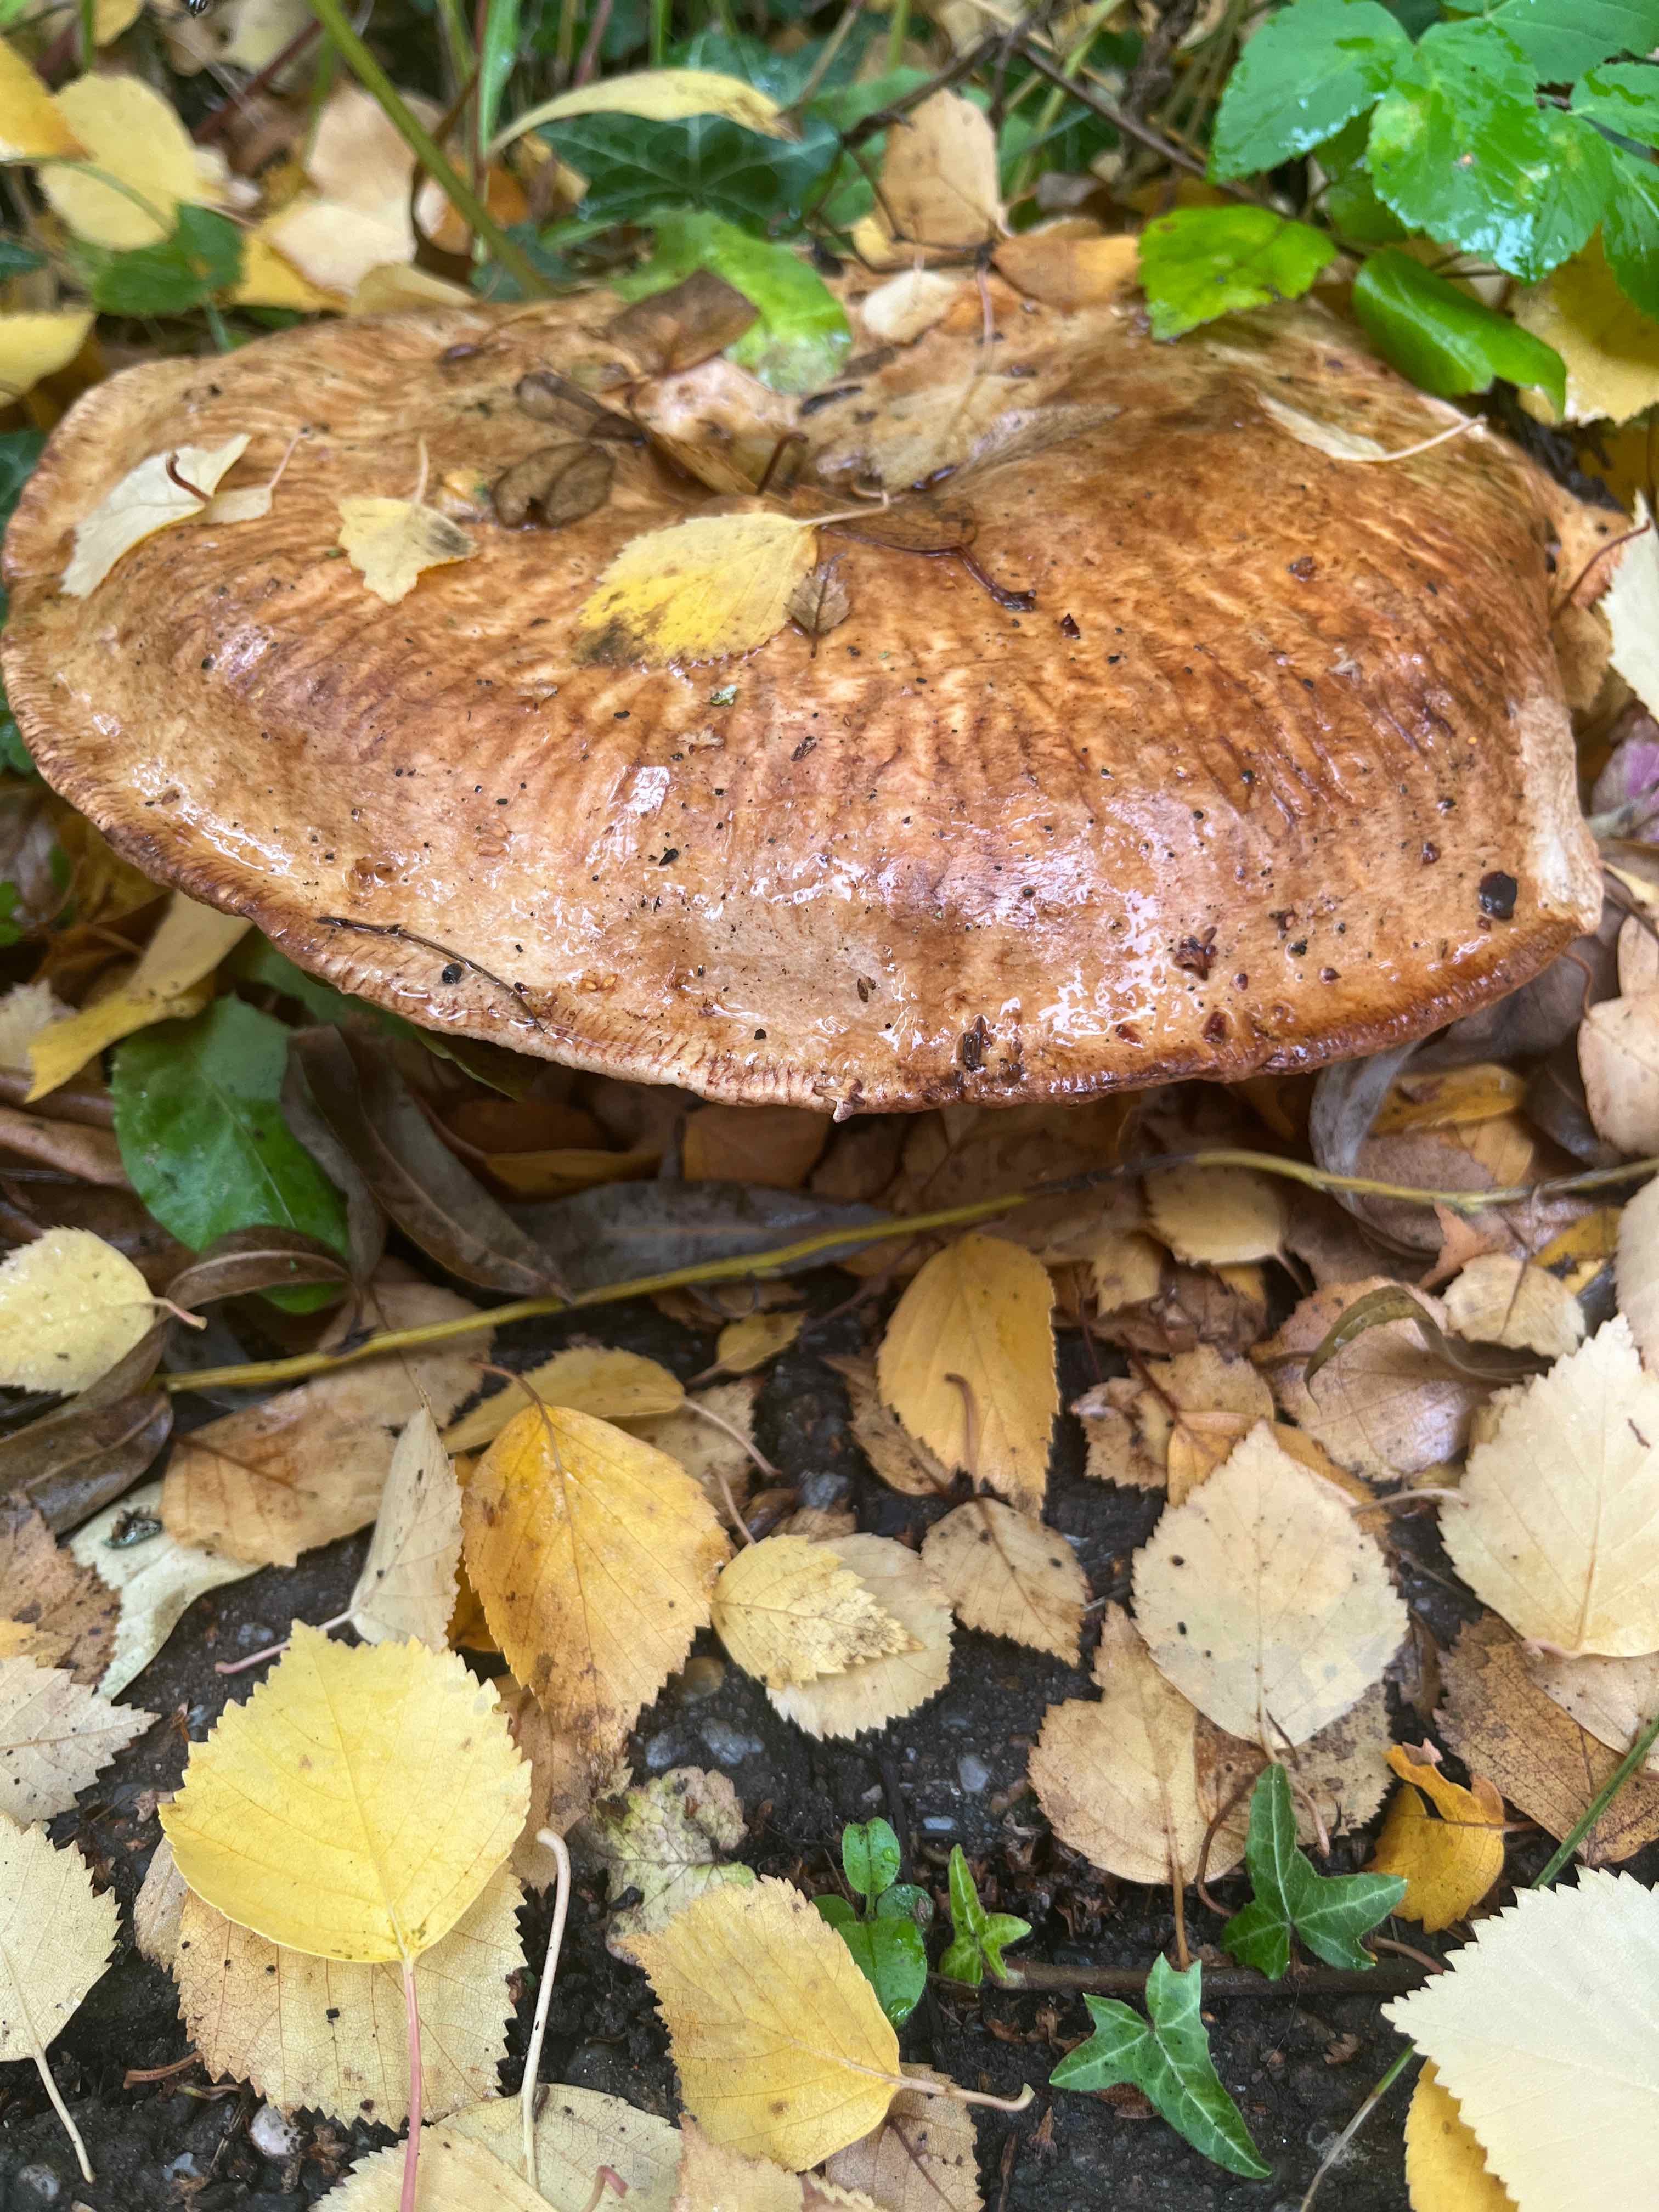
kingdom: Fungi
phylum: Basidiomycota
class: Agaricomycetes
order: Boletales
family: Paxillaceae
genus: Paxillus
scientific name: Paxillus
